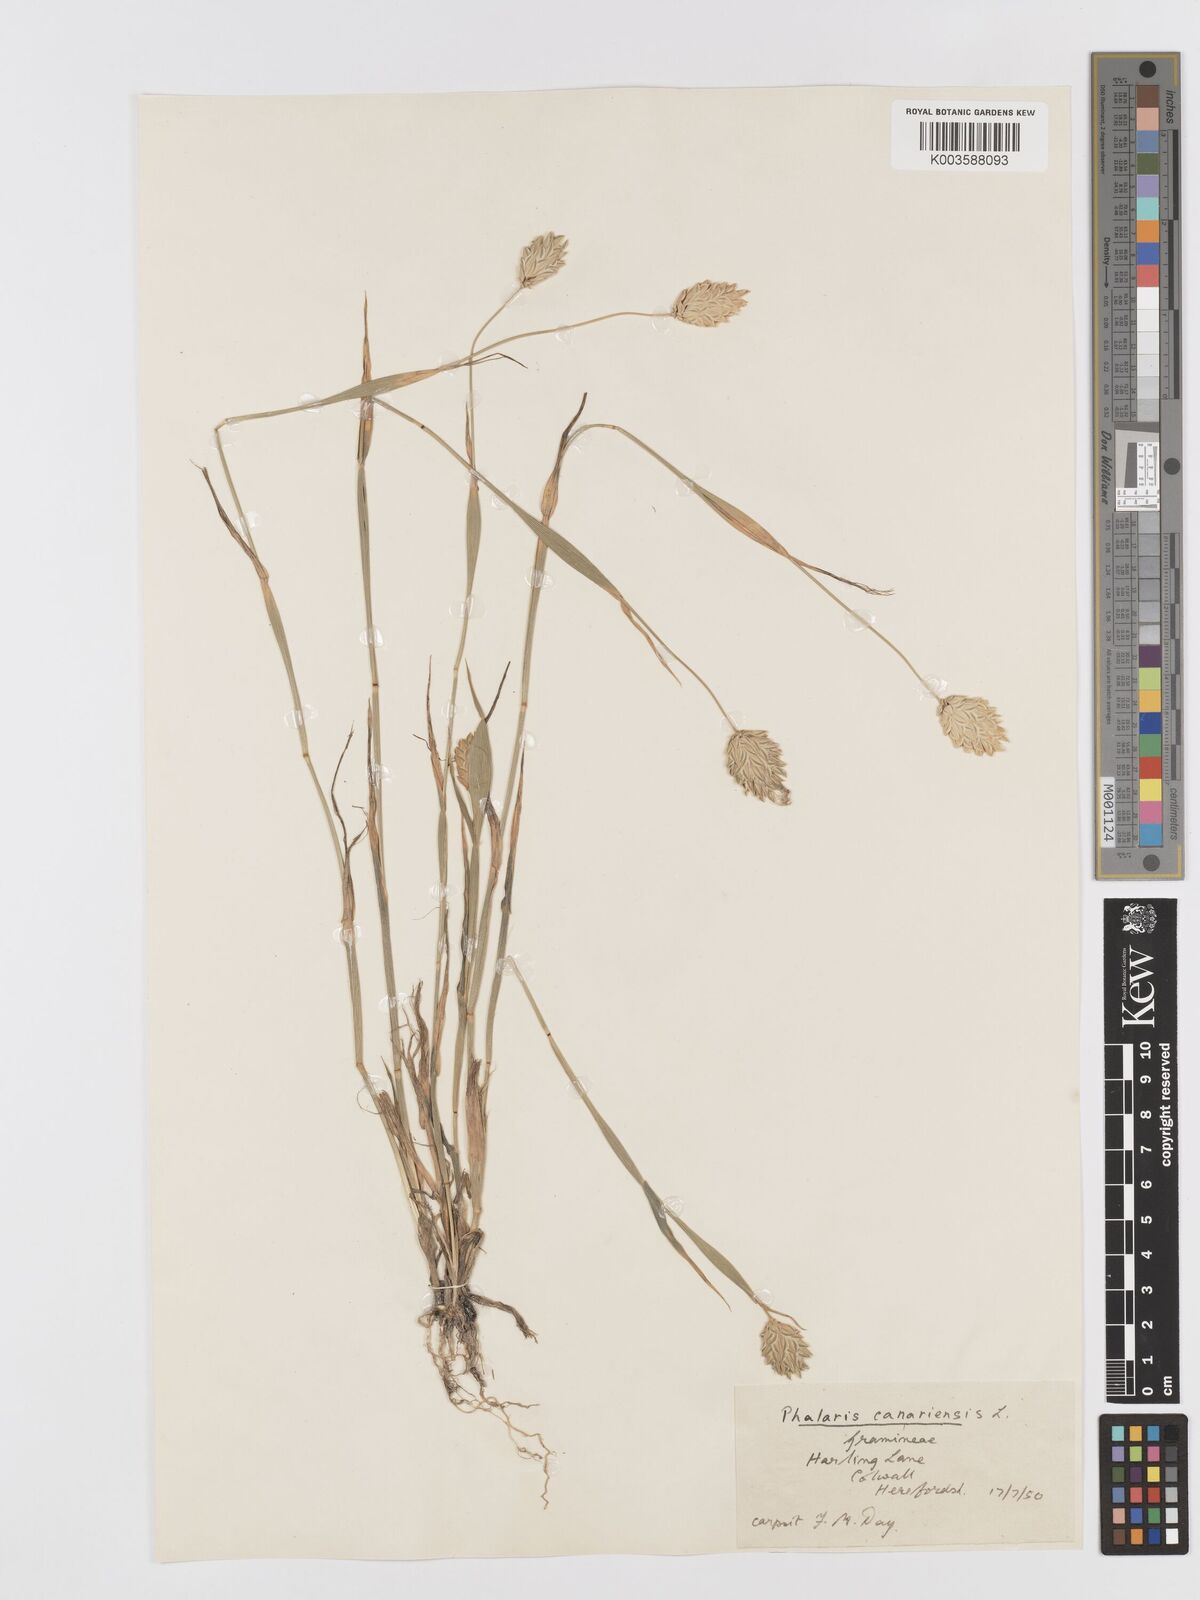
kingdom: Plantae
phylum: Tracheophyta
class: Liliopsida
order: Poales
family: Poaceae
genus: Phalaris
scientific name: Phalaris canariensis
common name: Annual canarygrass
